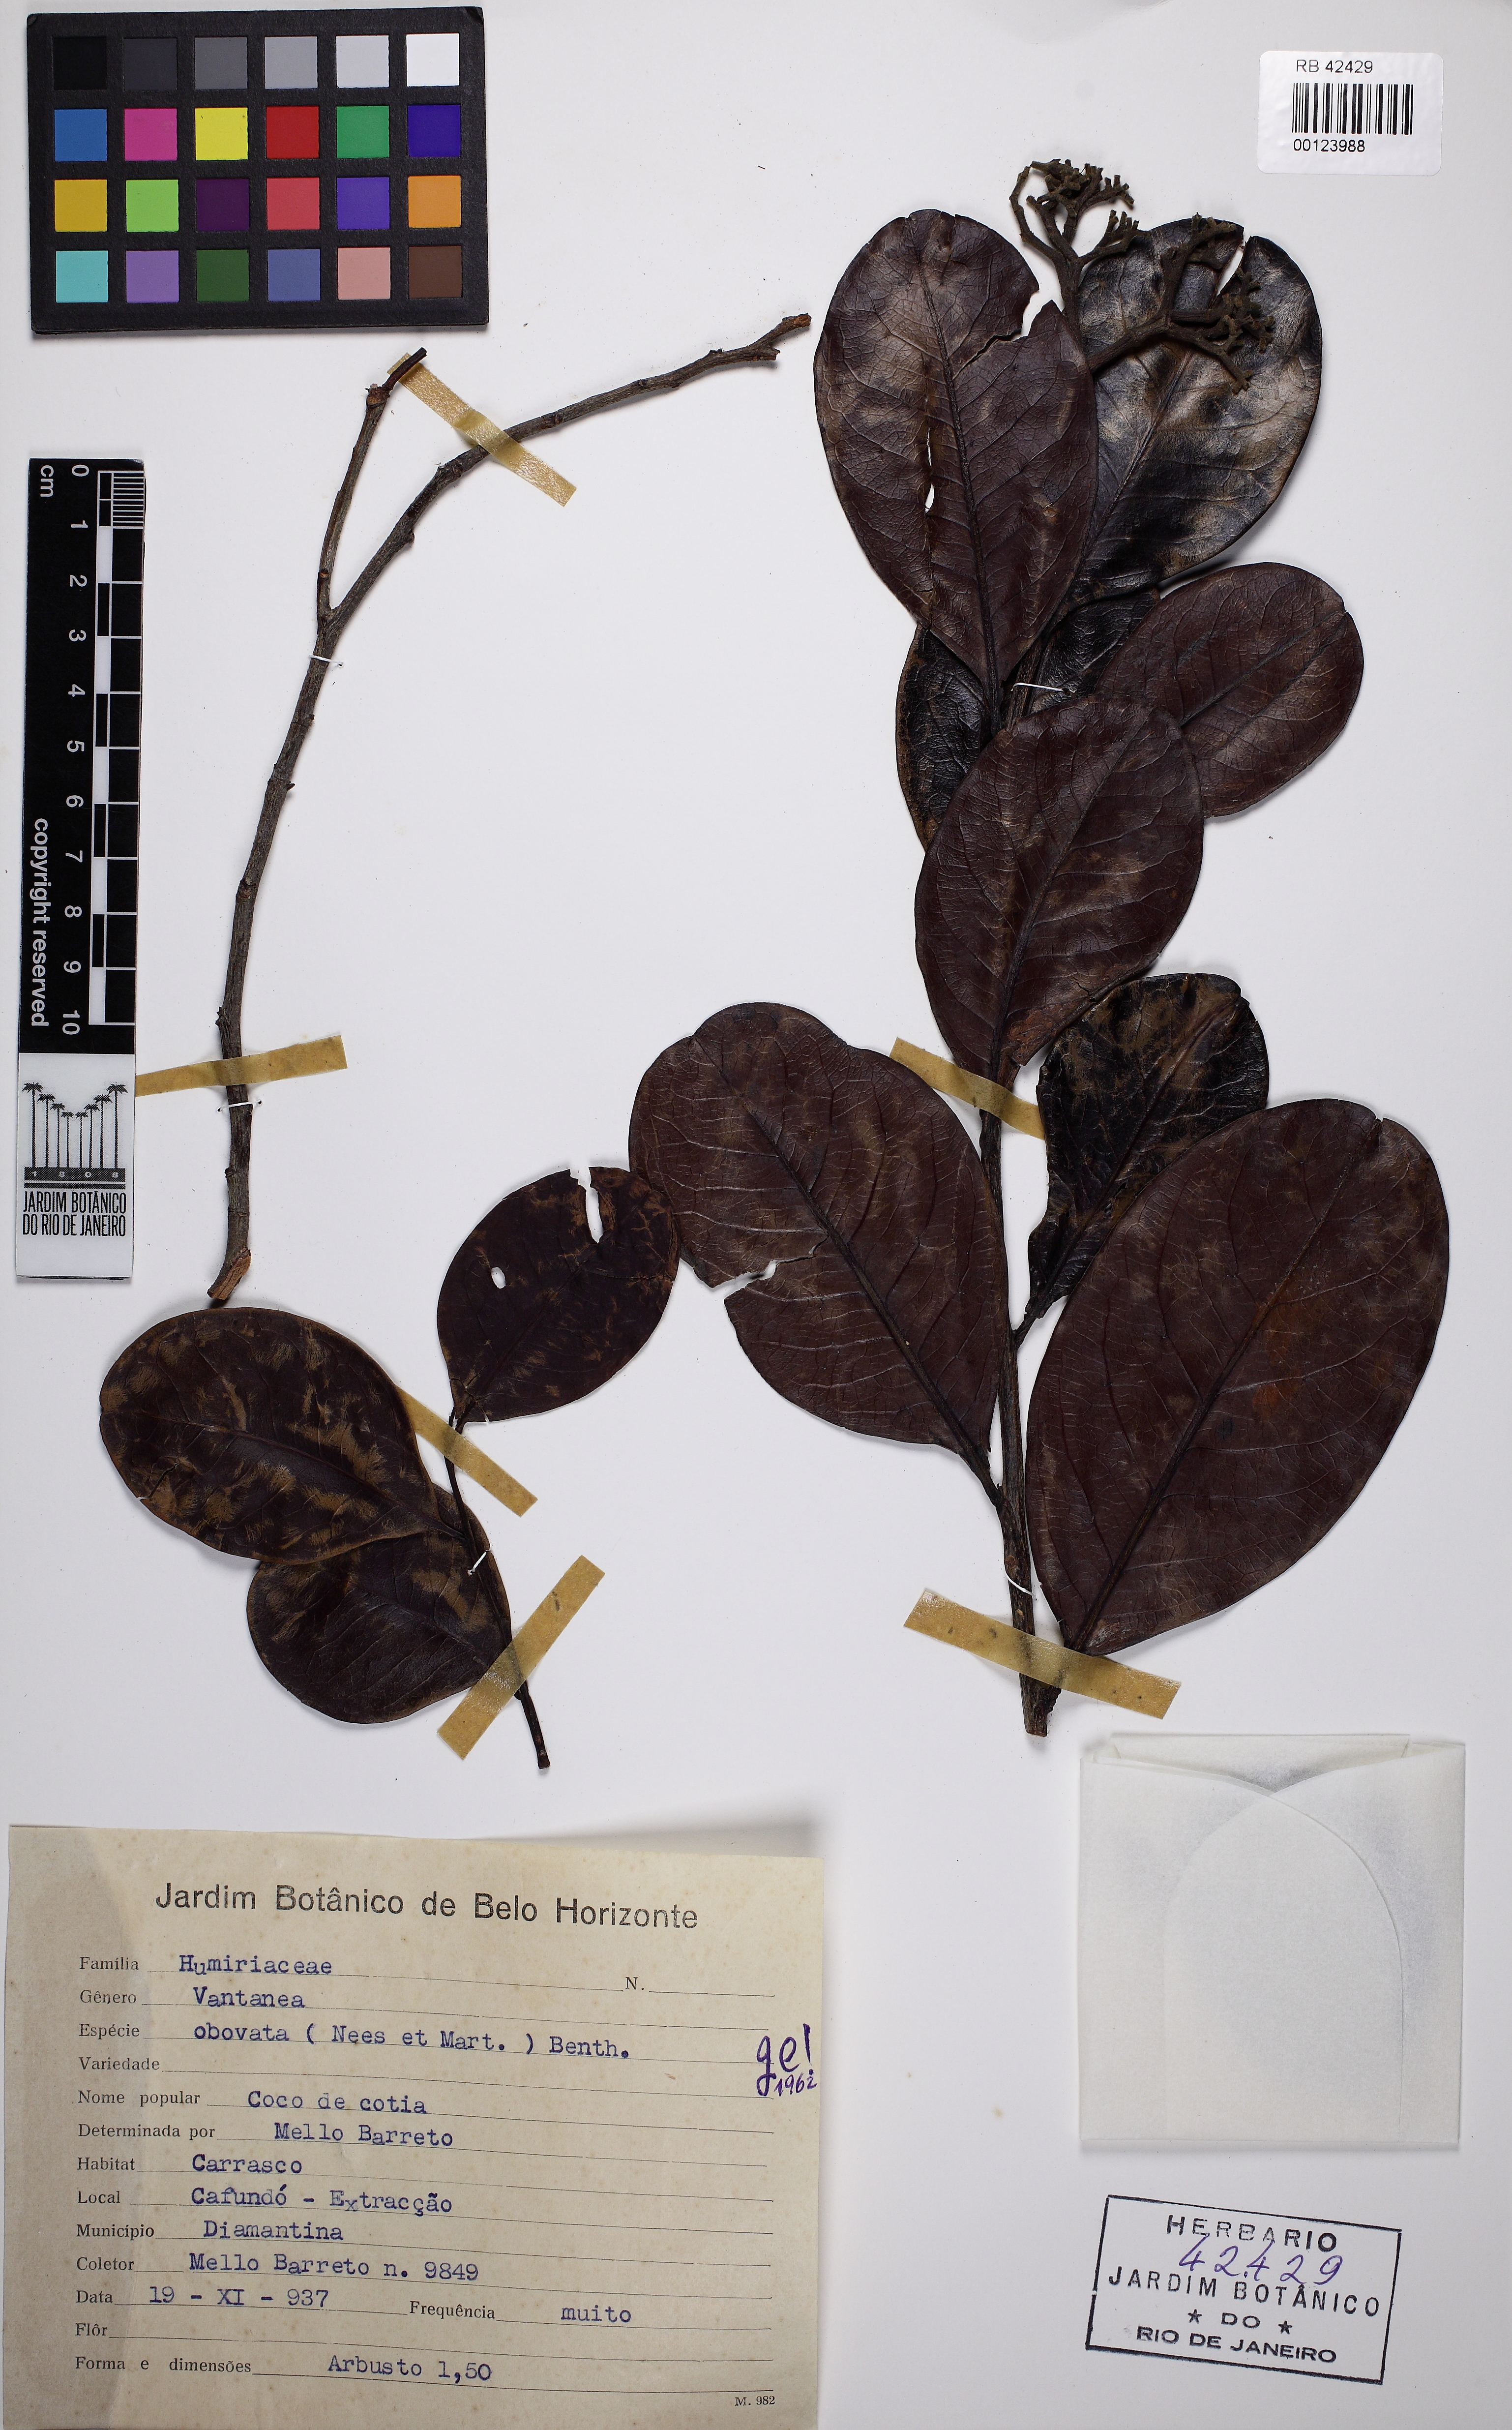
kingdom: Plantae
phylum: Tracheophyta
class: Magnoliopsida
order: Malpighiales
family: Humiriaceae
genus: Vantanea
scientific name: Vantanea obovata
